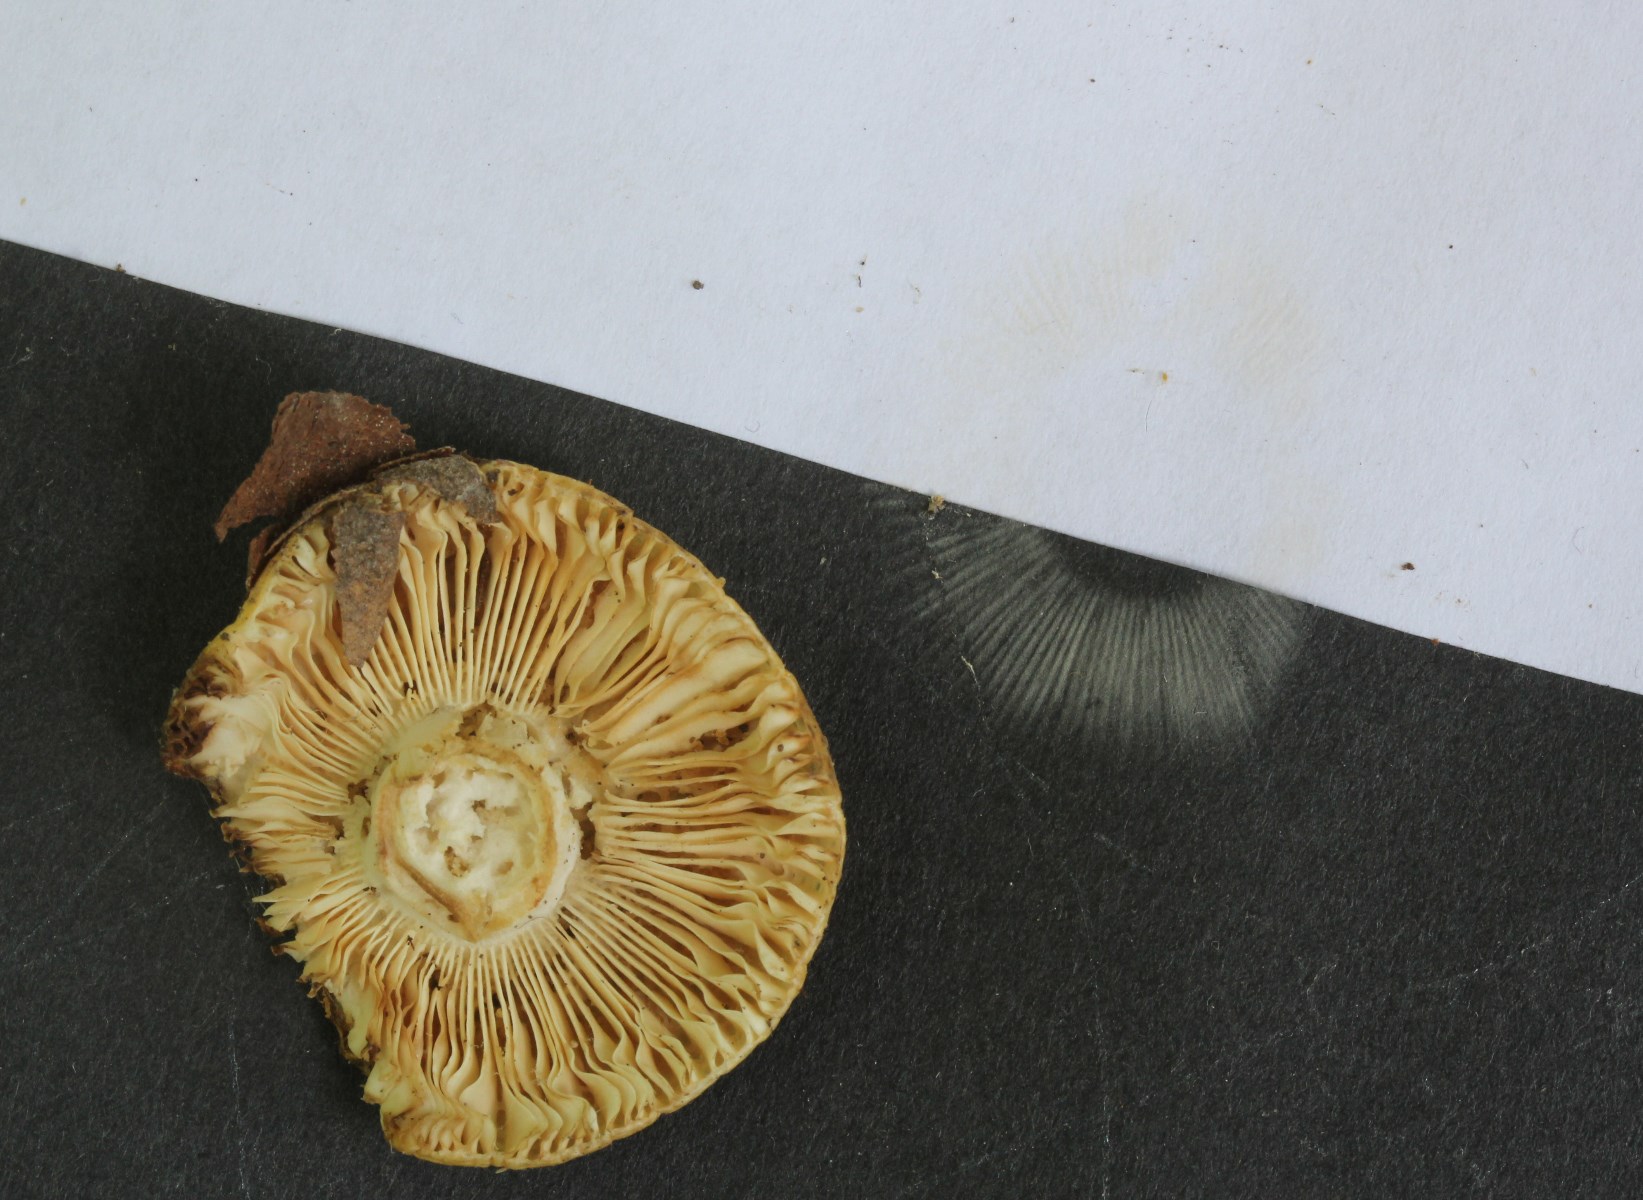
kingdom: Fungi
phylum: Basidiomycota
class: Agaricomycetes
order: Russulales
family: Russulaceae
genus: Russula
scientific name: Russula solaris
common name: sol-skørhat
